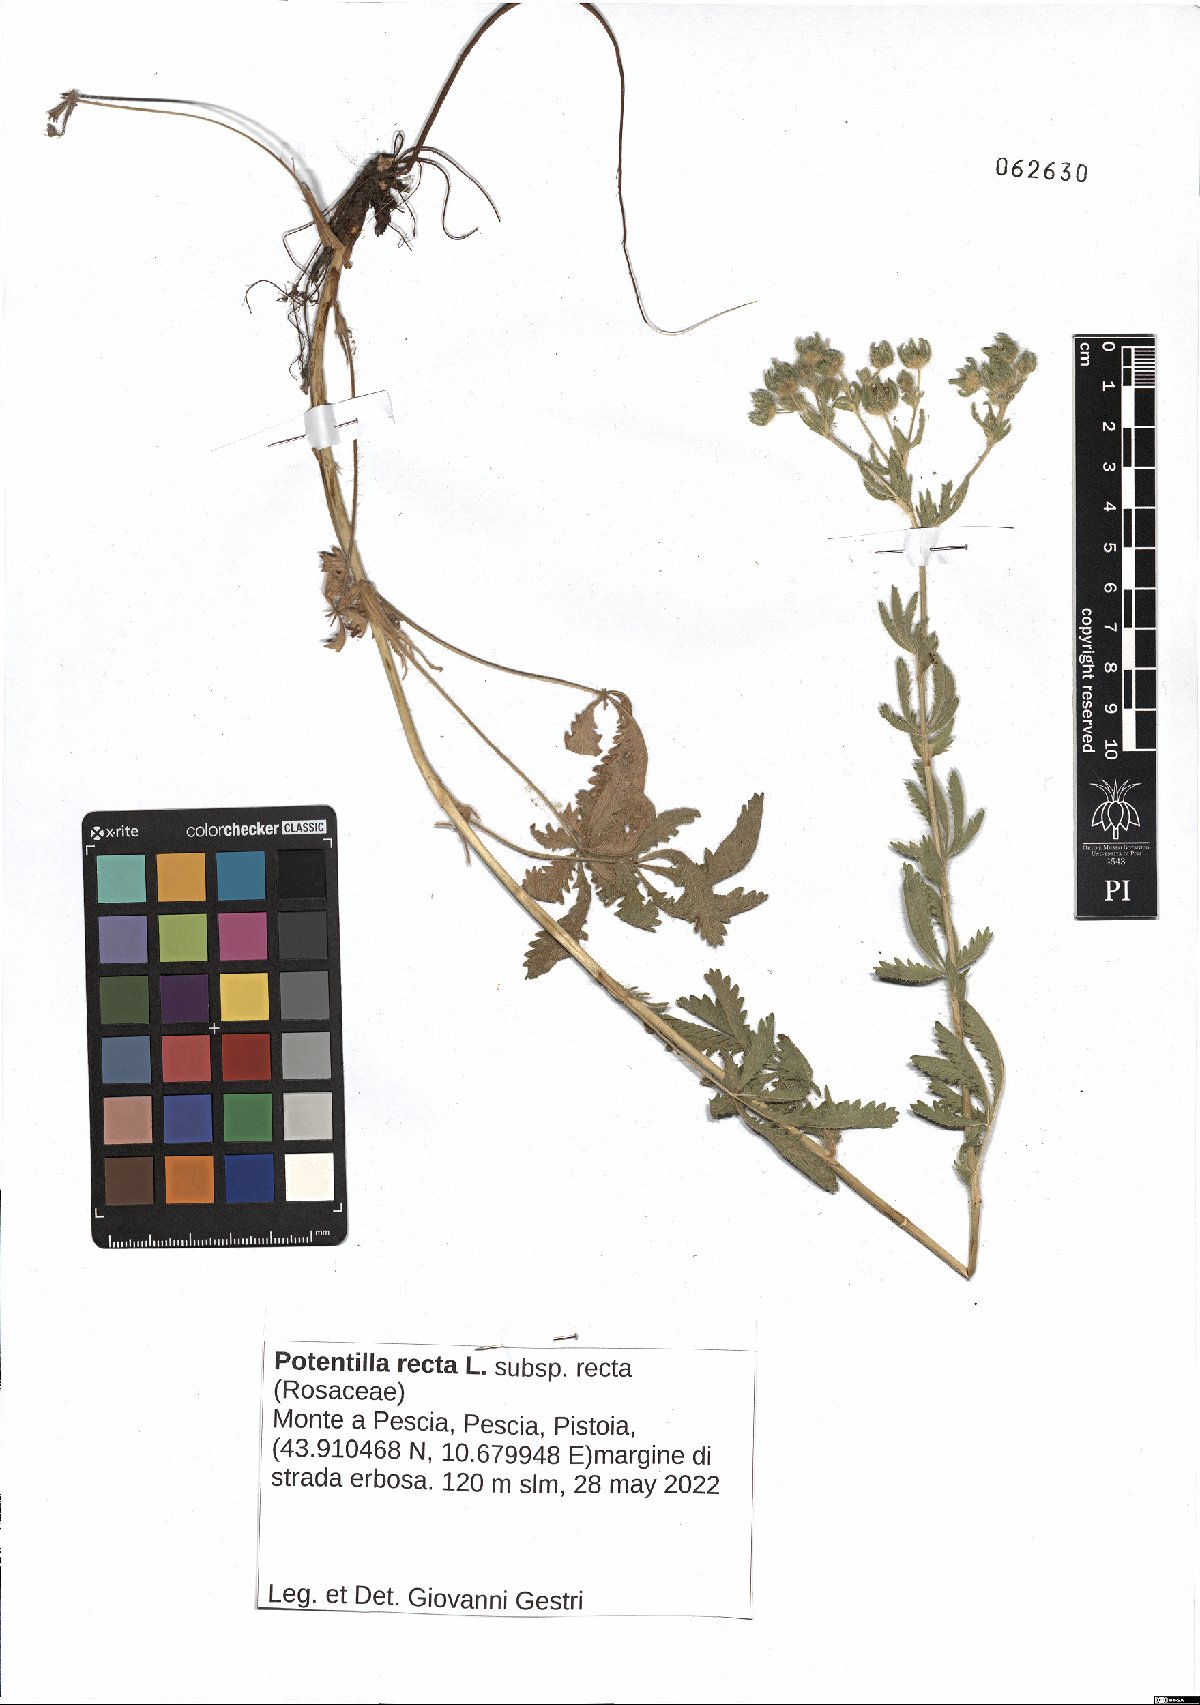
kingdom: Plantae
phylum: Tracheophyta
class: Magnoliopsida
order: Rosales
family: Rosaceae
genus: Potentilla
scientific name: Potentilla recta
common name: Sulphur cinquefoil
